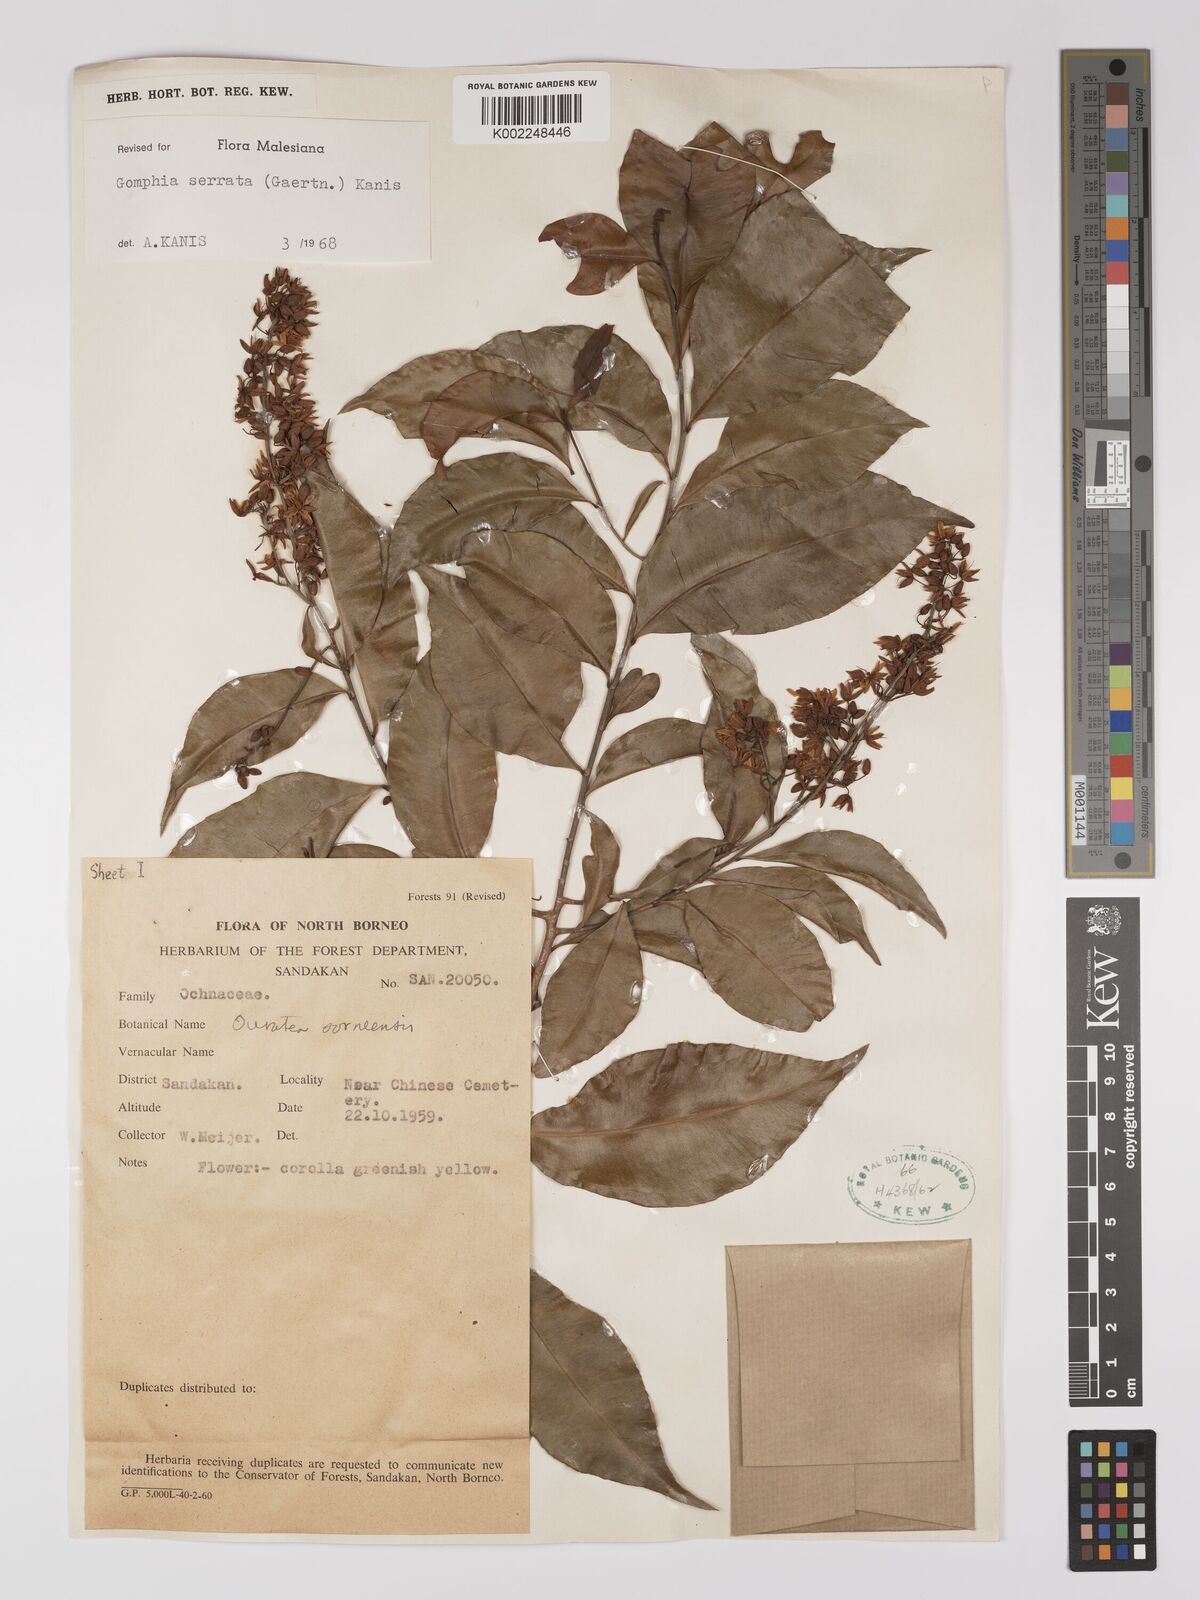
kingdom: Plantae
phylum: Tracheophyta
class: Magnoliopsida
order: Malpighiales
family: Ochnaceae
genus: Gomphia
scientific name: Gomphia serrata
